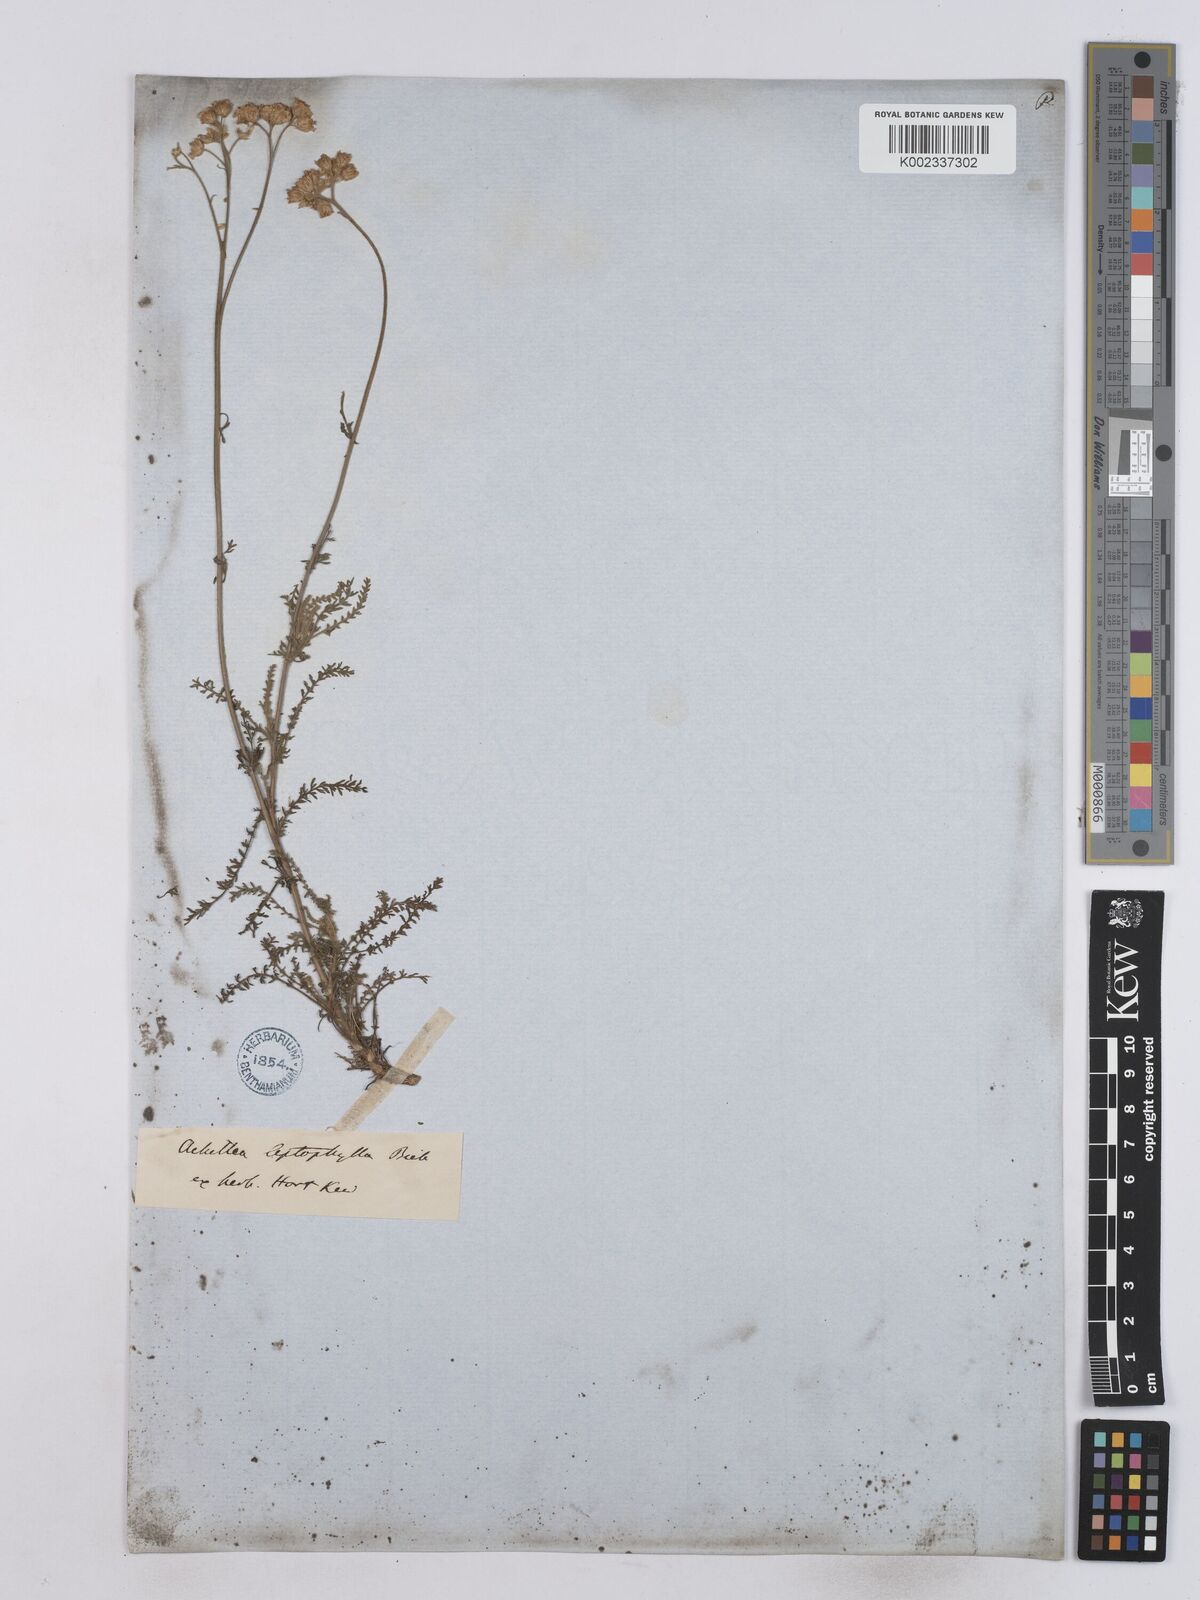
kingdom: Plantae
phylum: Tracheophyta
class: Magnoliopsida
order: Asterales
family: Asteraceae
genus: Achillea
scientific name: Achillea leptophylla
